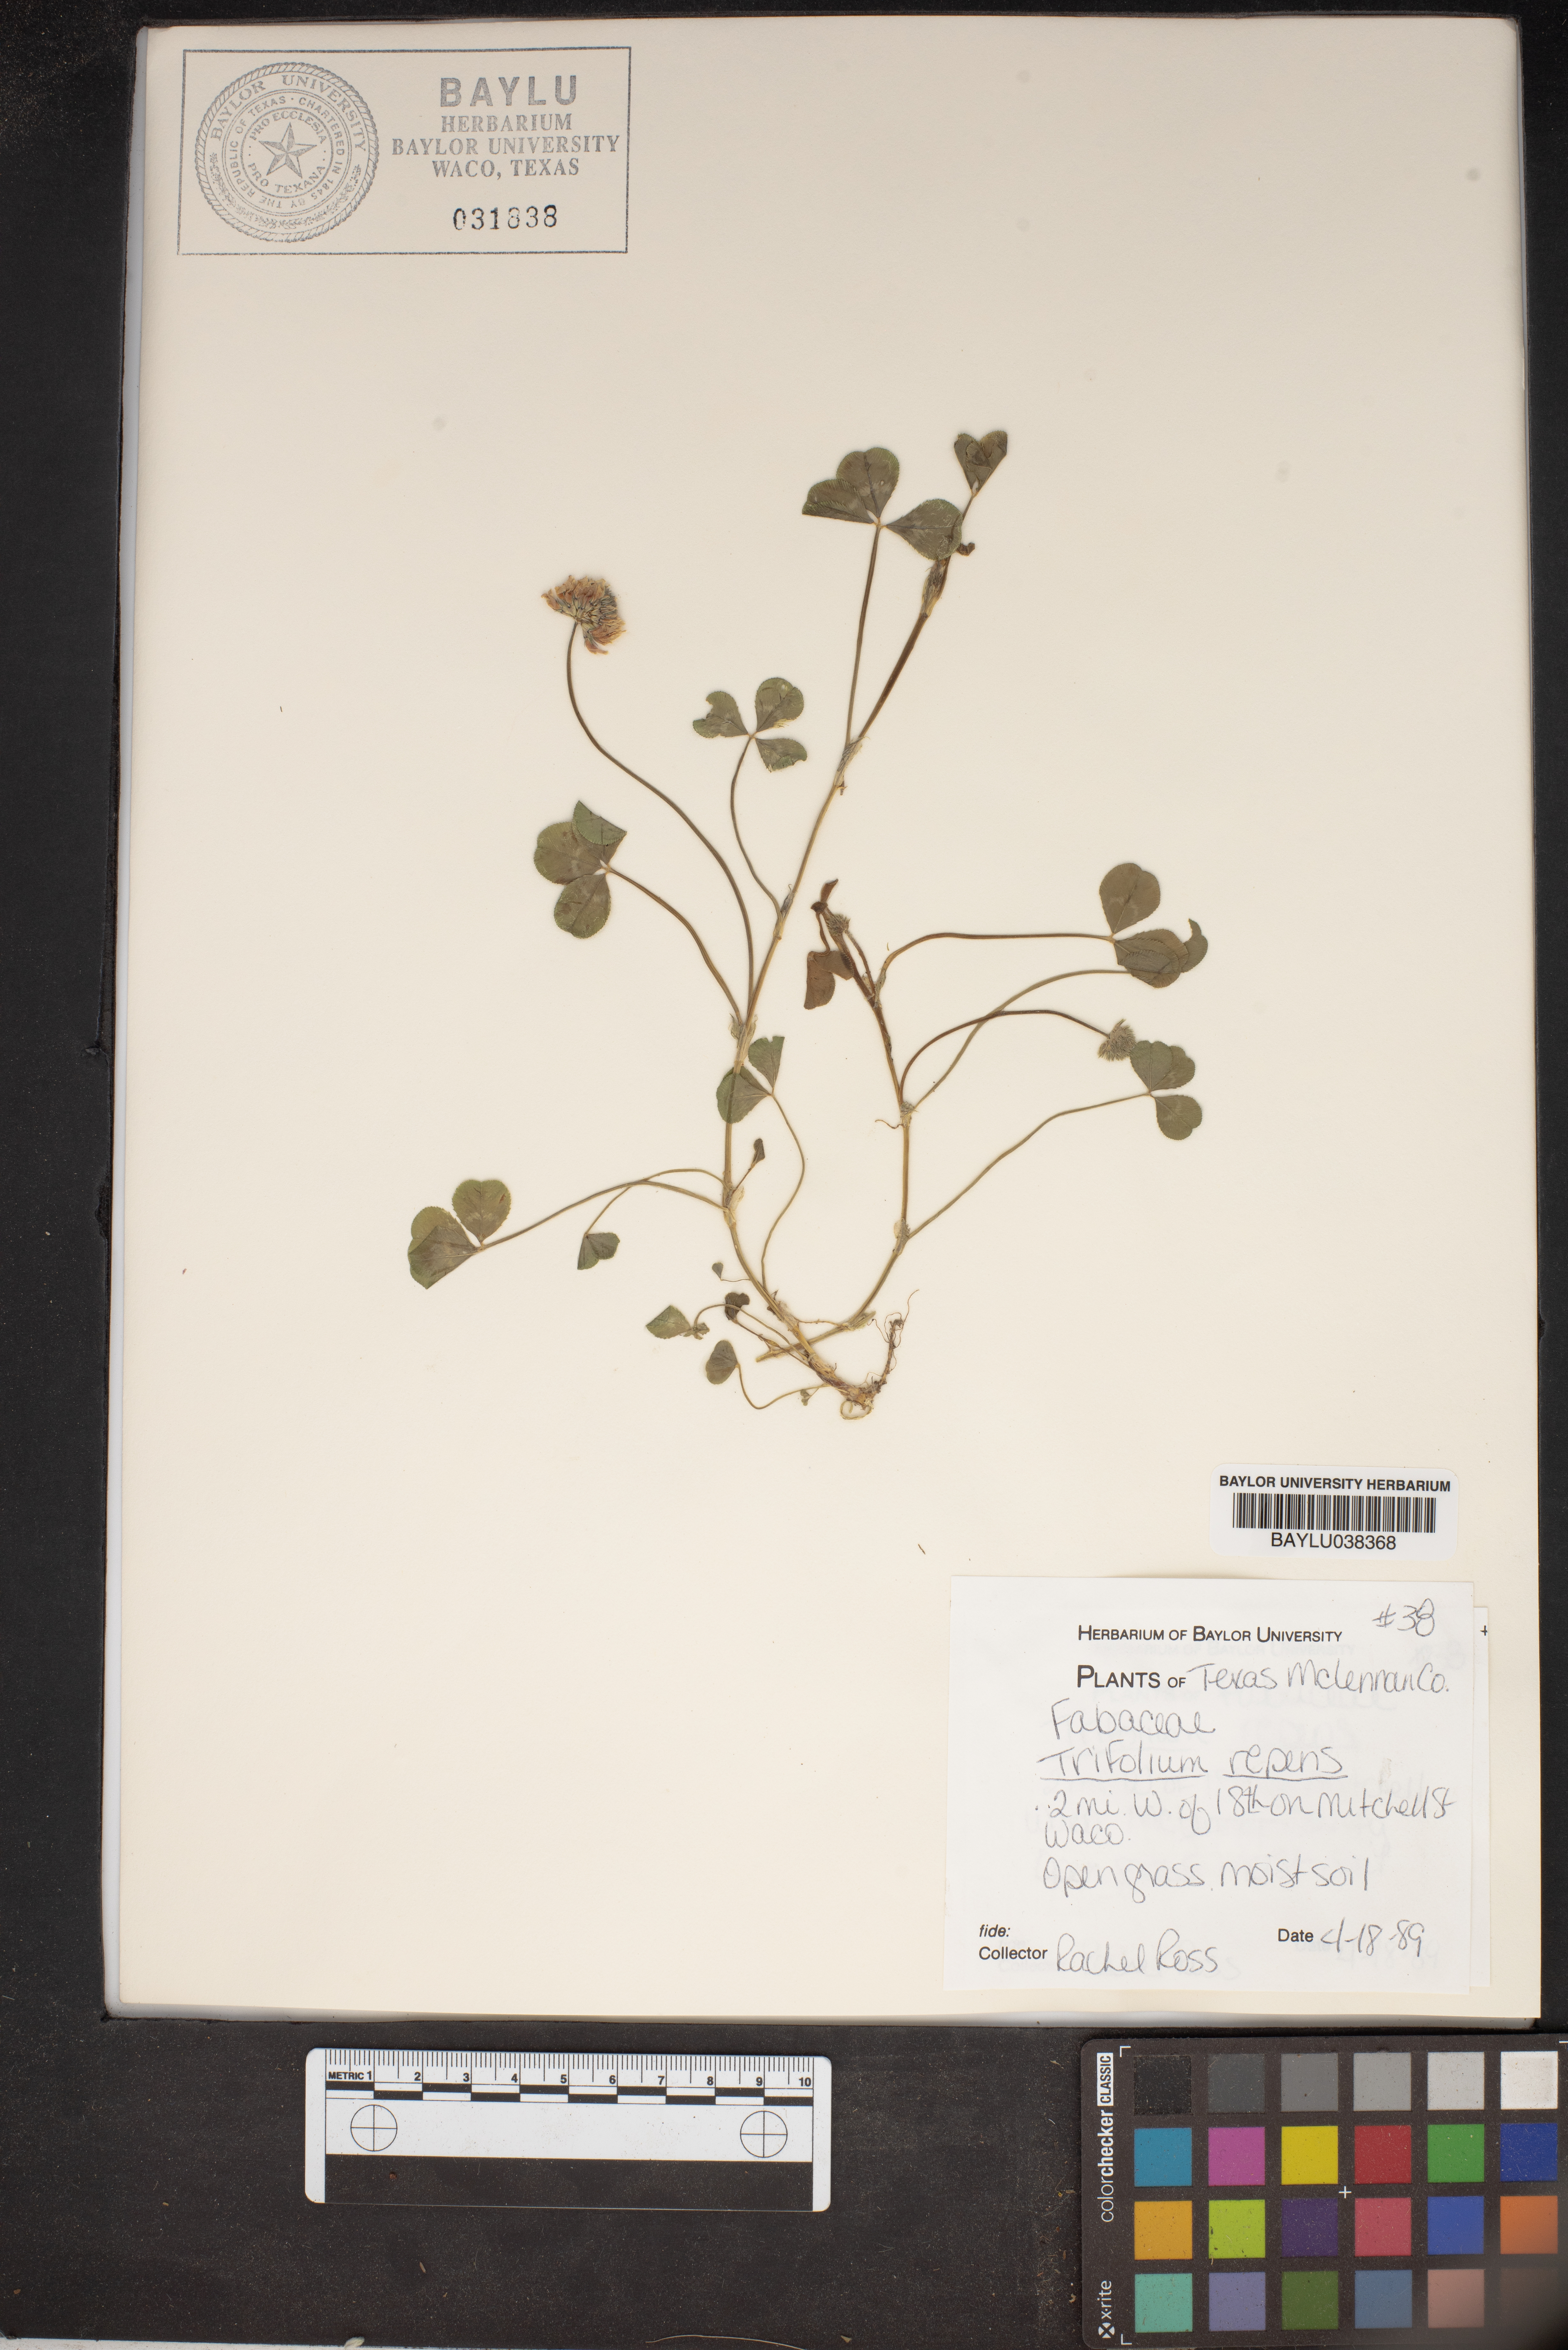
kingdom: Plantae
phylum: Tracheophyta
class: Magnoliopsida
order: Fabales
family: Fabaceae
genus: Trifolium
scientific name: Trifolium repens
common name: White clover
